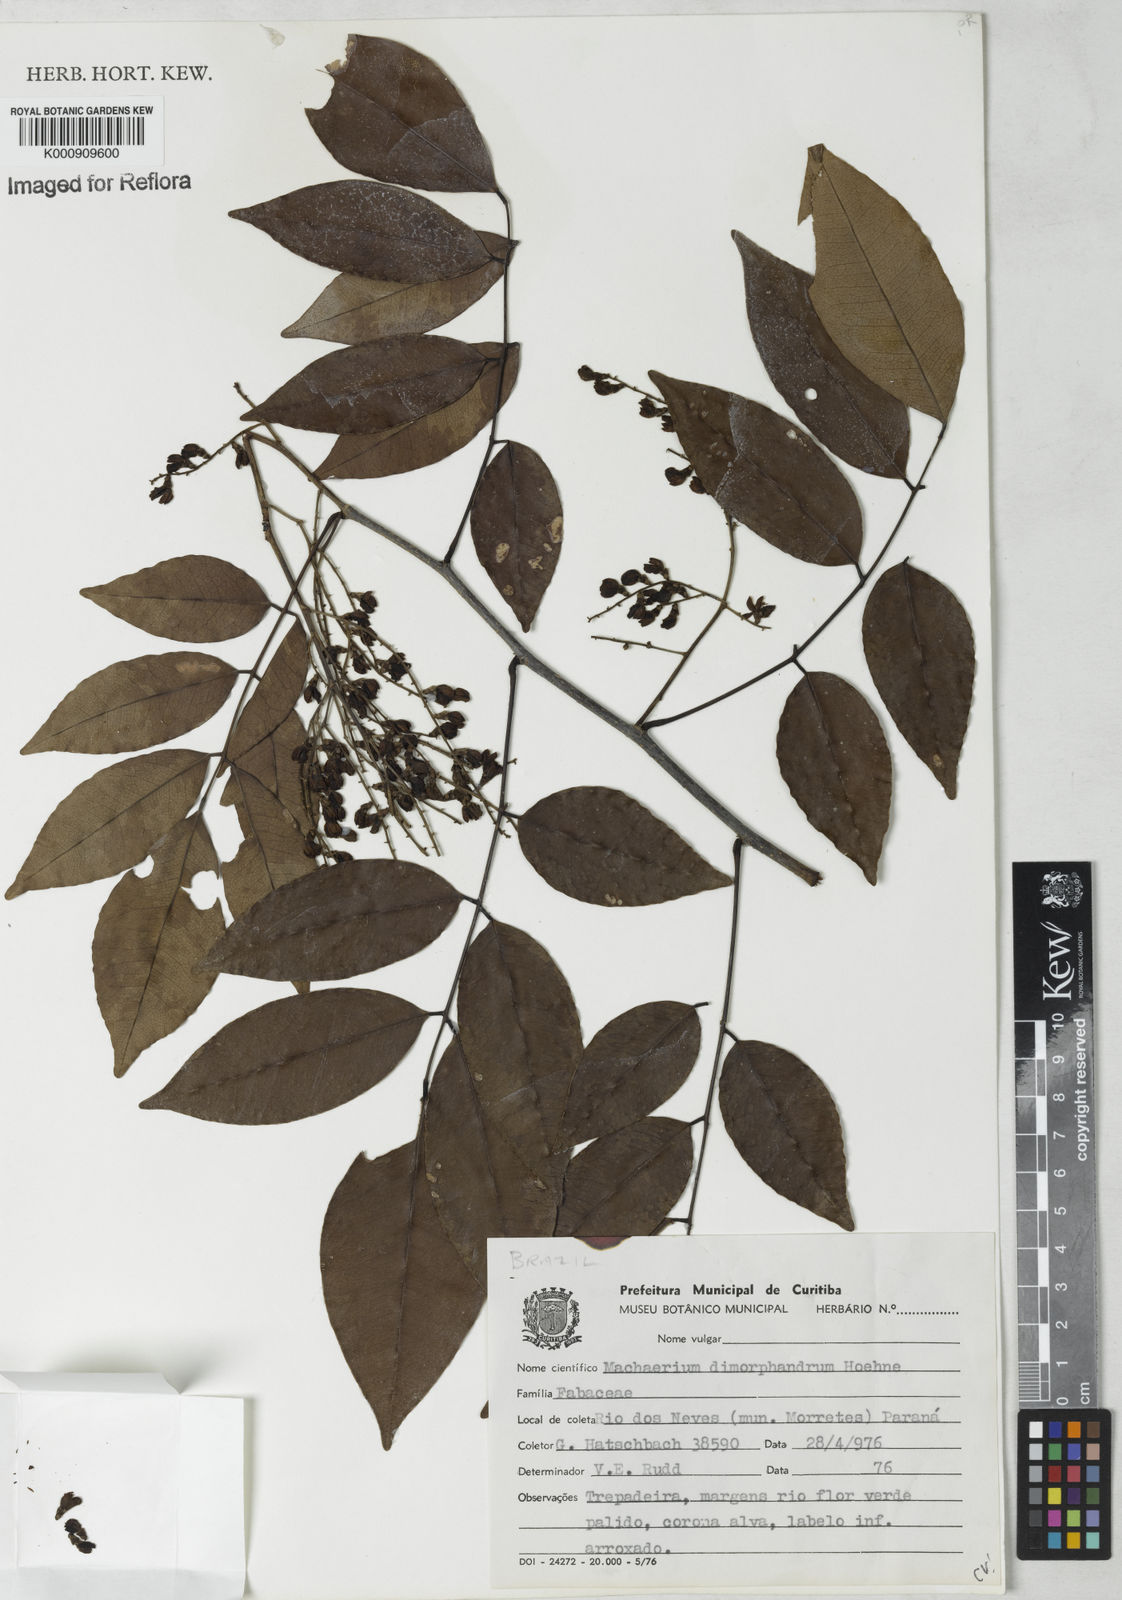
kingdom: Plantae
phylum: Tracheophyta
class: Magnoliopsida
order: Fabales
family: Fabaceae
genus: Machaerium
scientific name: Machaerium debile
